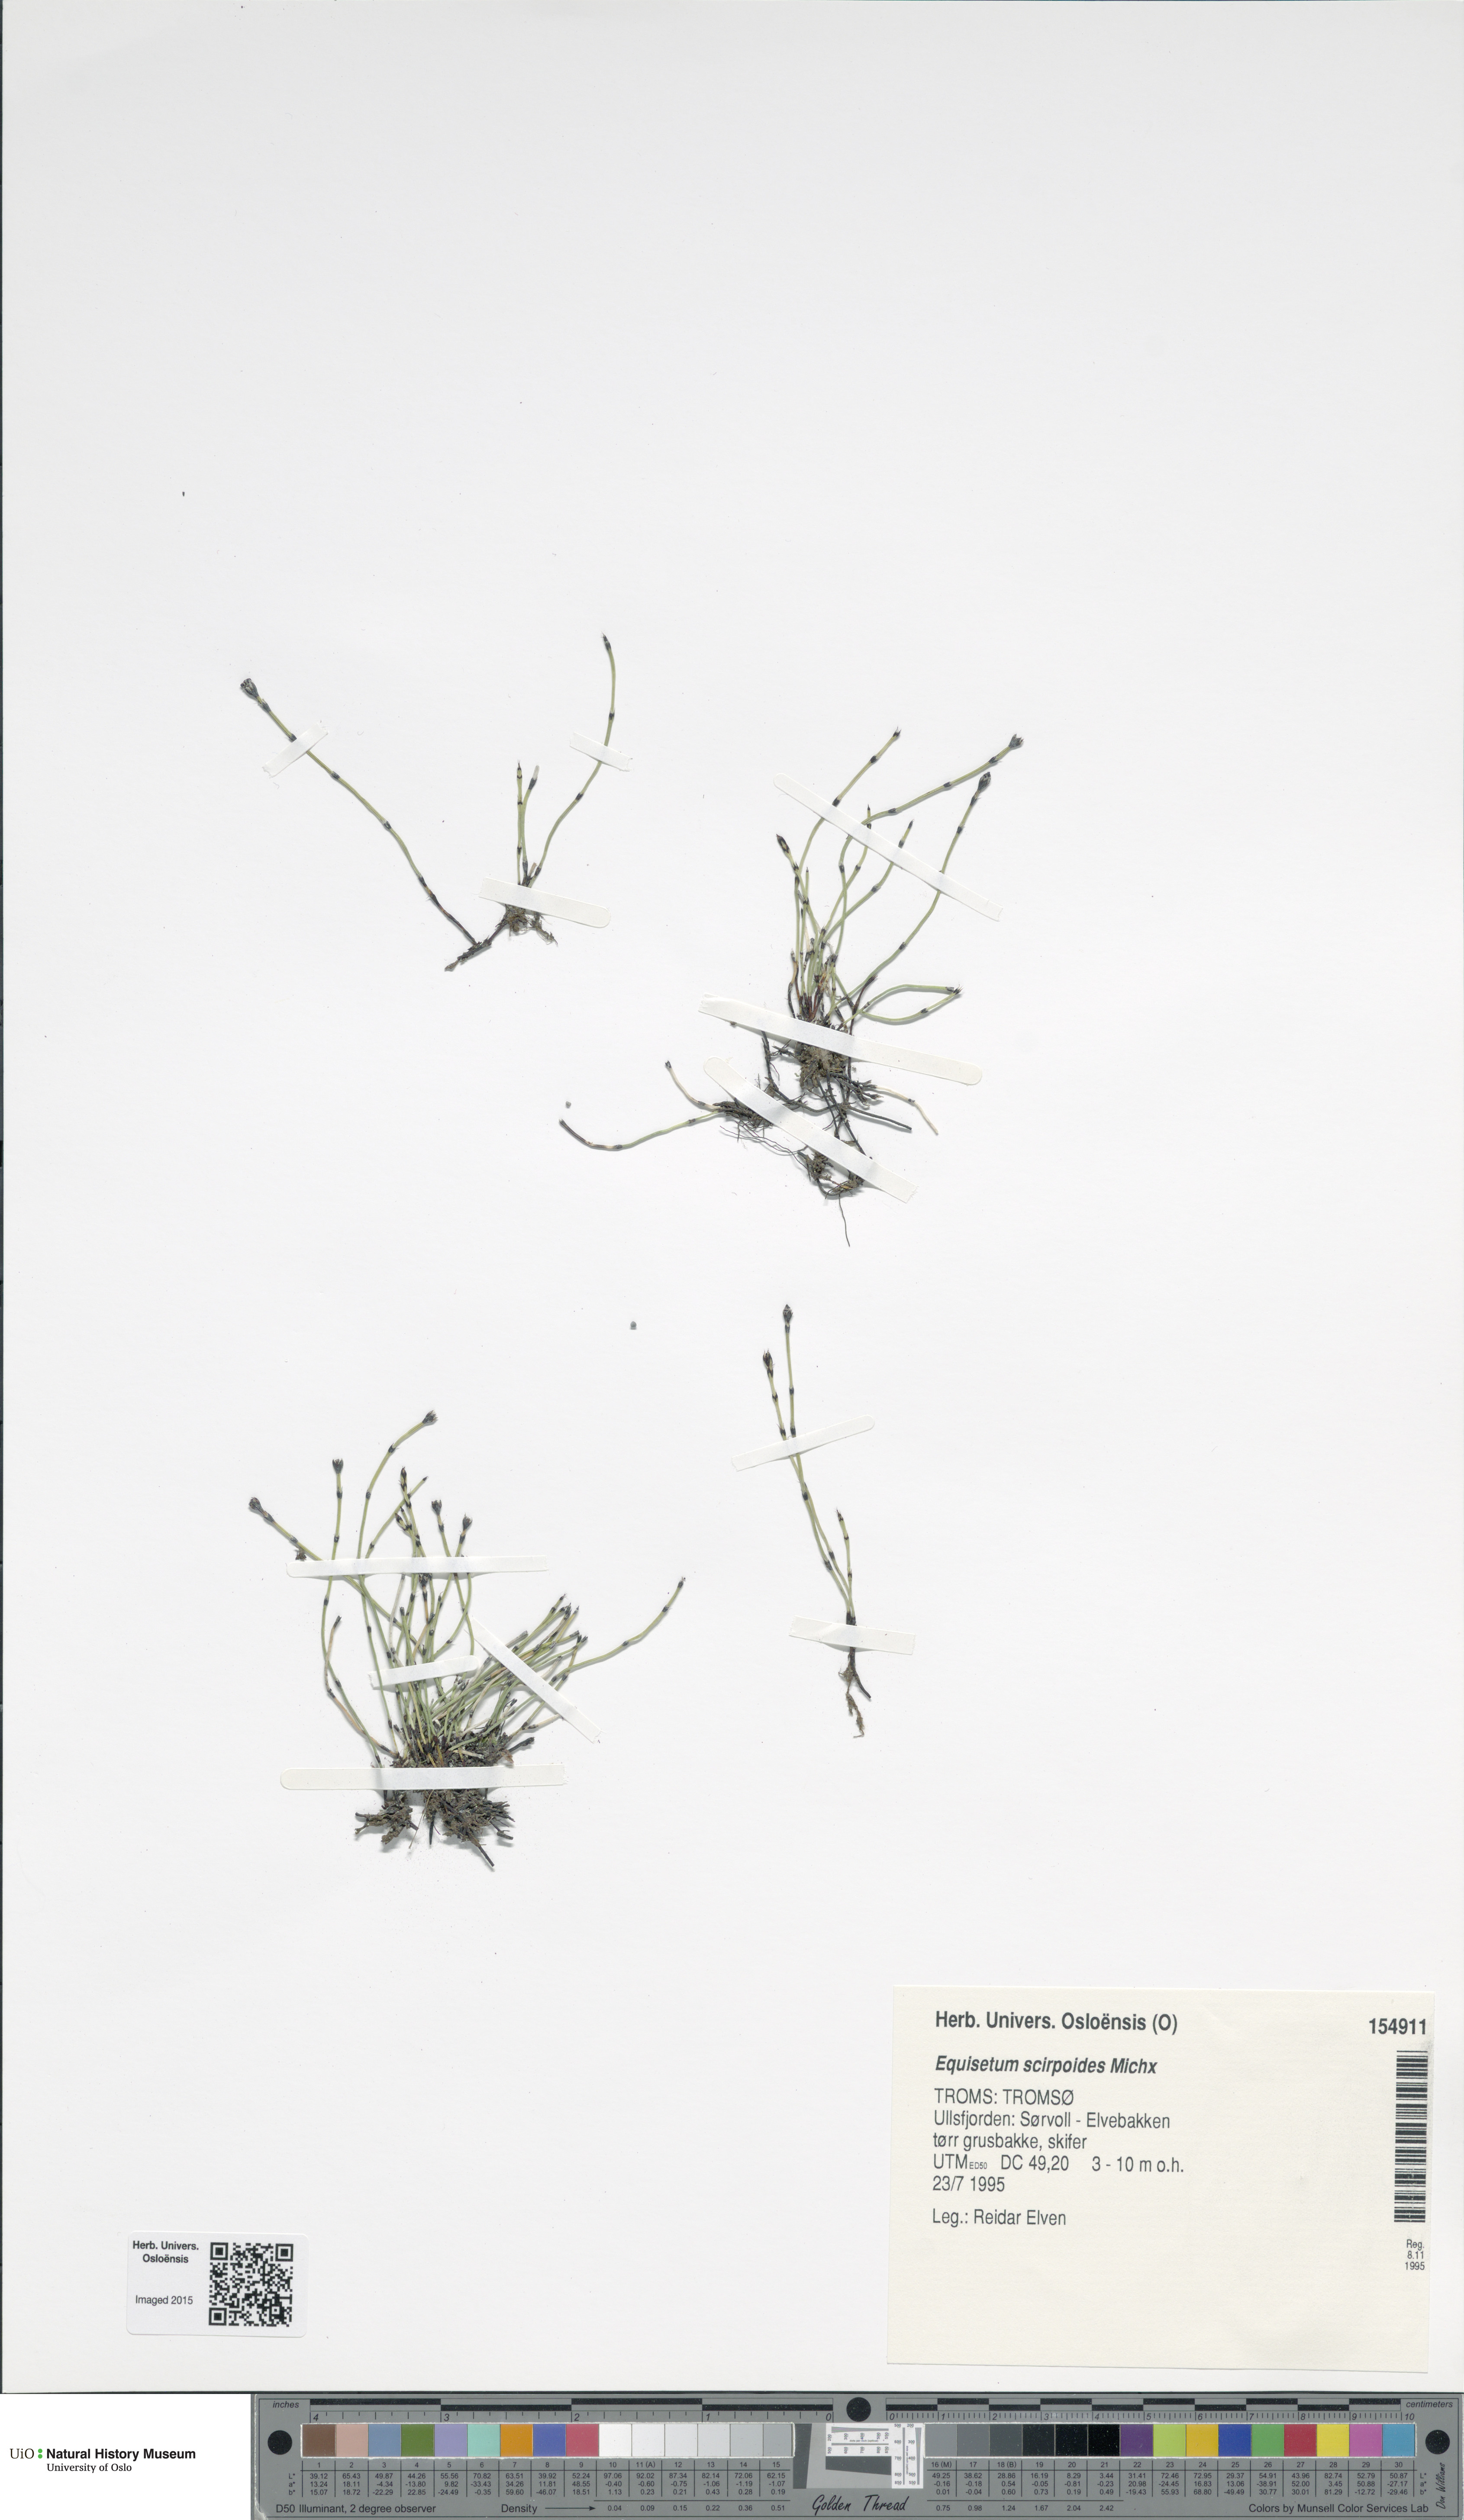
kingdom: Plantae
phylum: Tracheophyta
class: Polypodiopsida
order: Equisetales
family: Equisetaceae
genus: Equisetum
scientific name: Equisetum scirpoides
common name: Delicate horsetail
